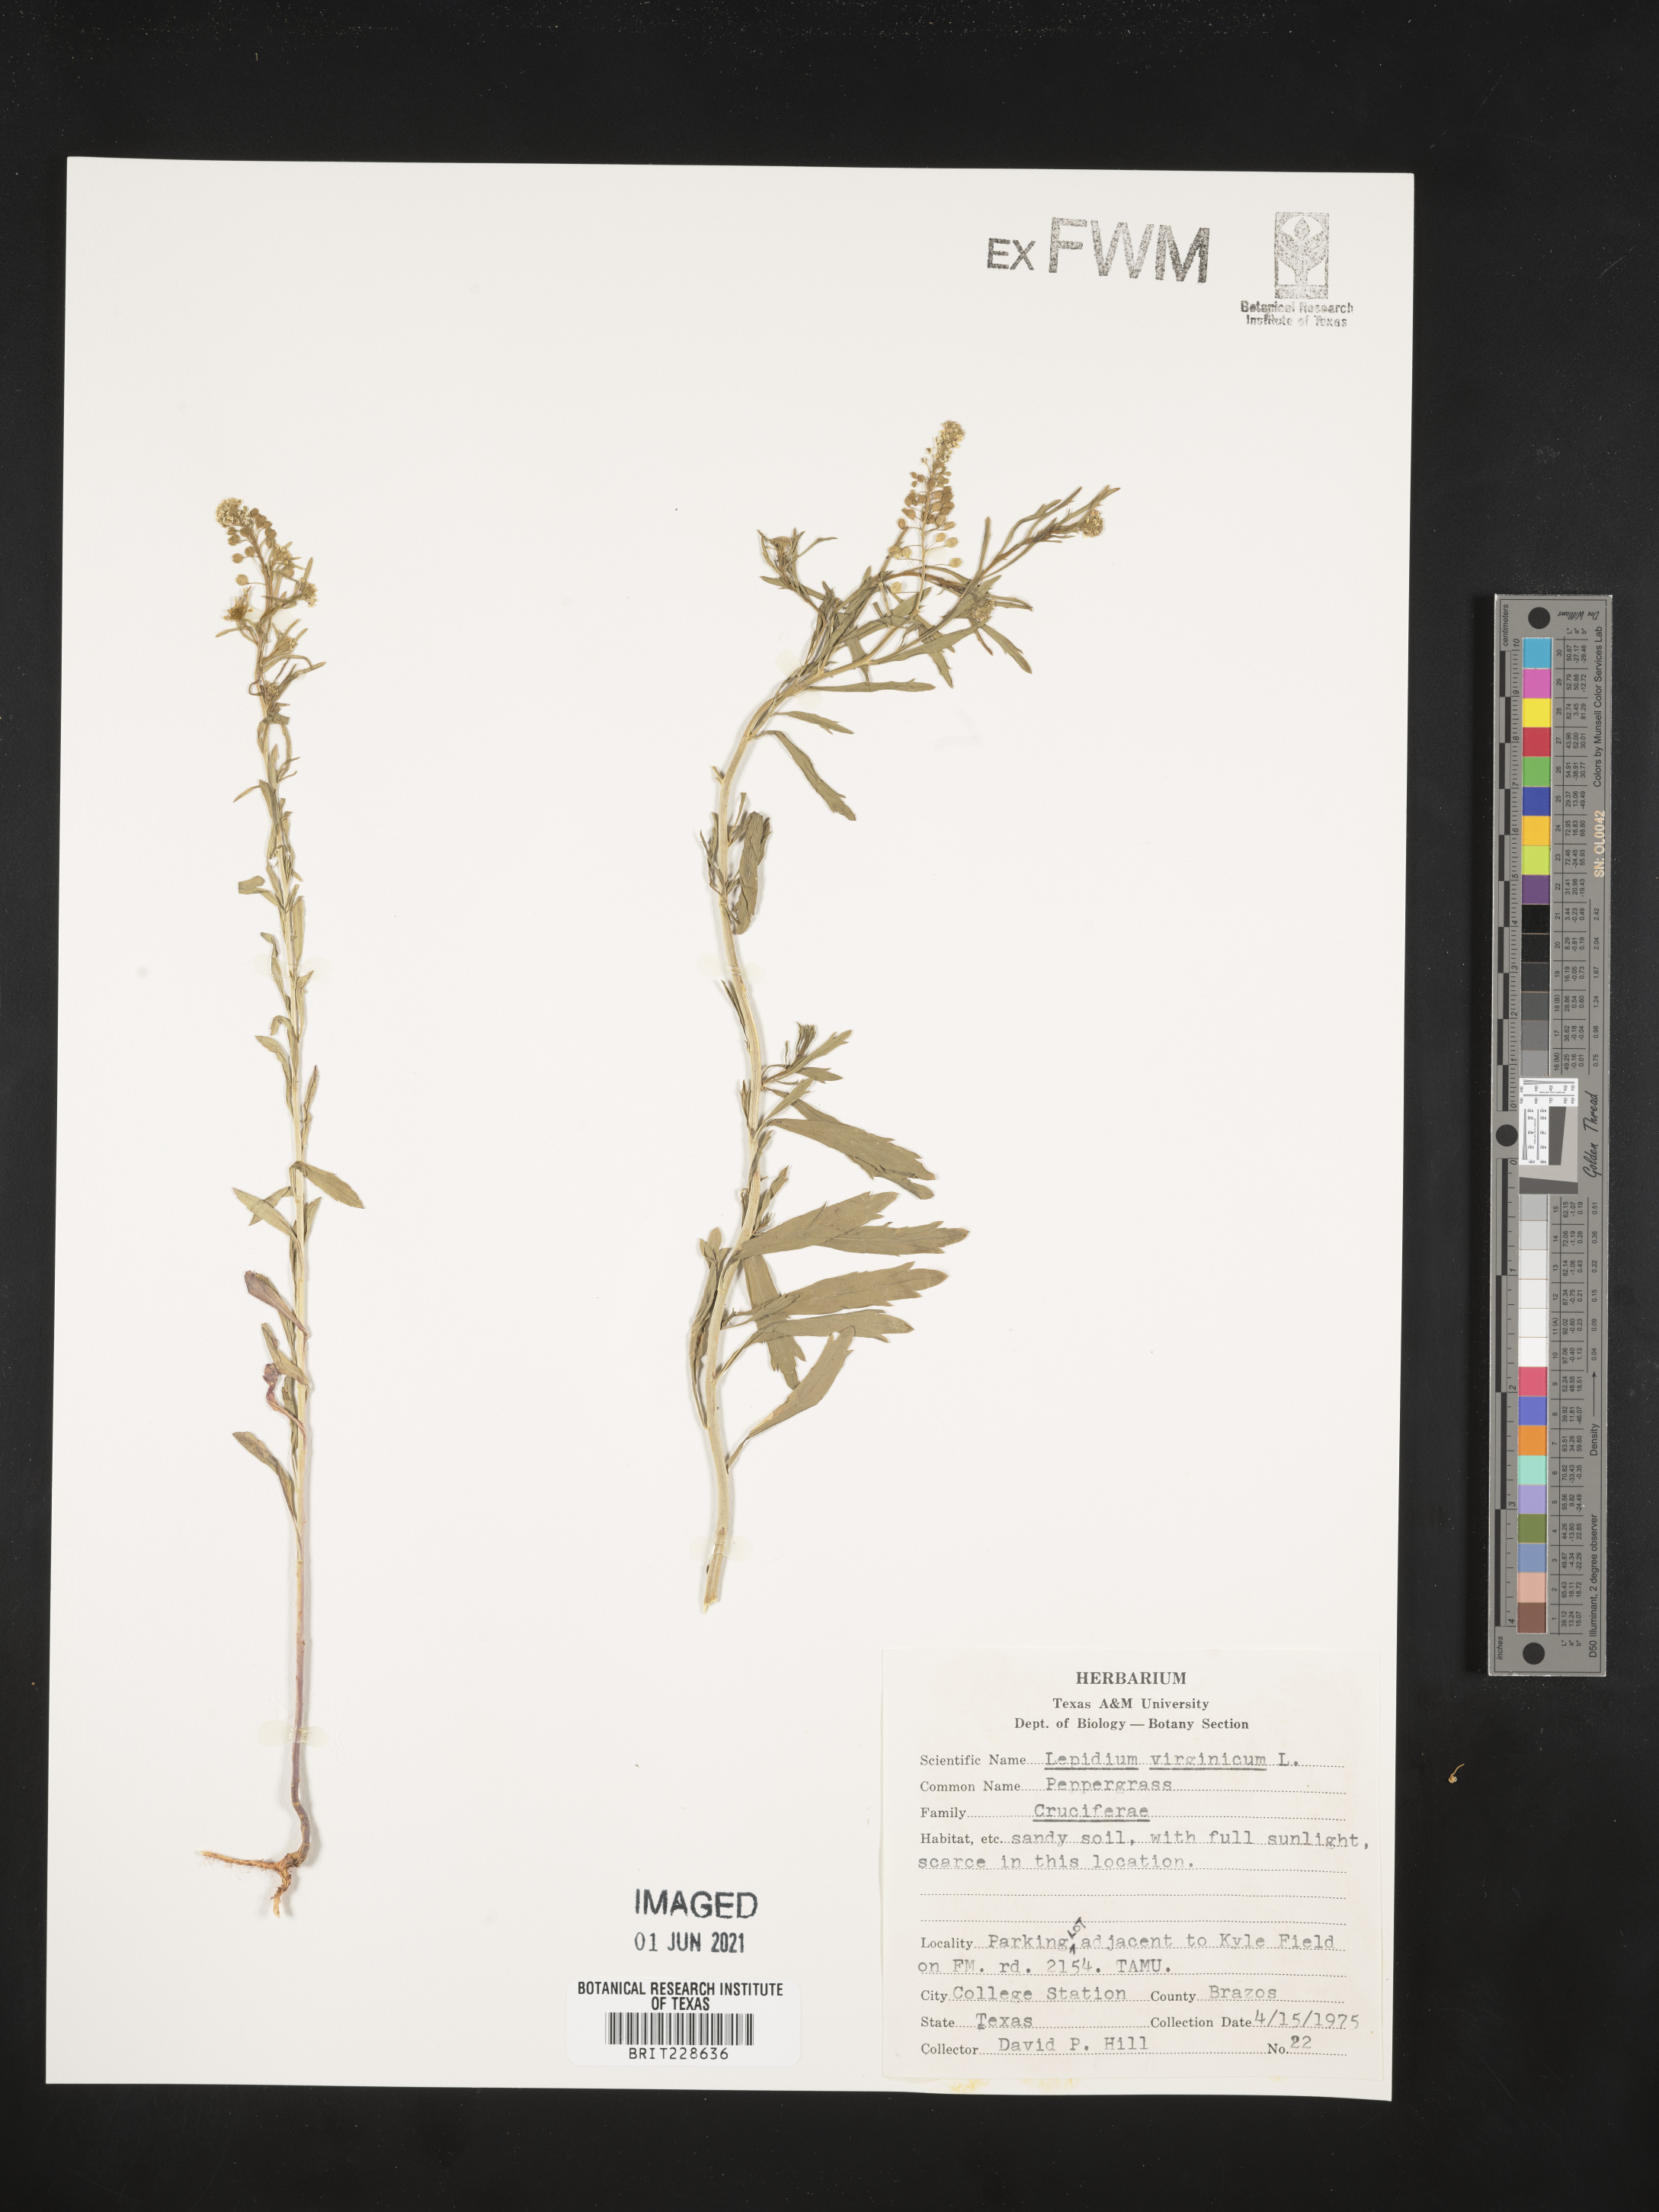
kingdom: Plantae
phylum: Tracheophyta
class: Magnoliopsida
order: Brassicales
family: Brassicaceae
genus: Lepidium
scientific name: Lepidium virginicum
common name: Least pepperwort
